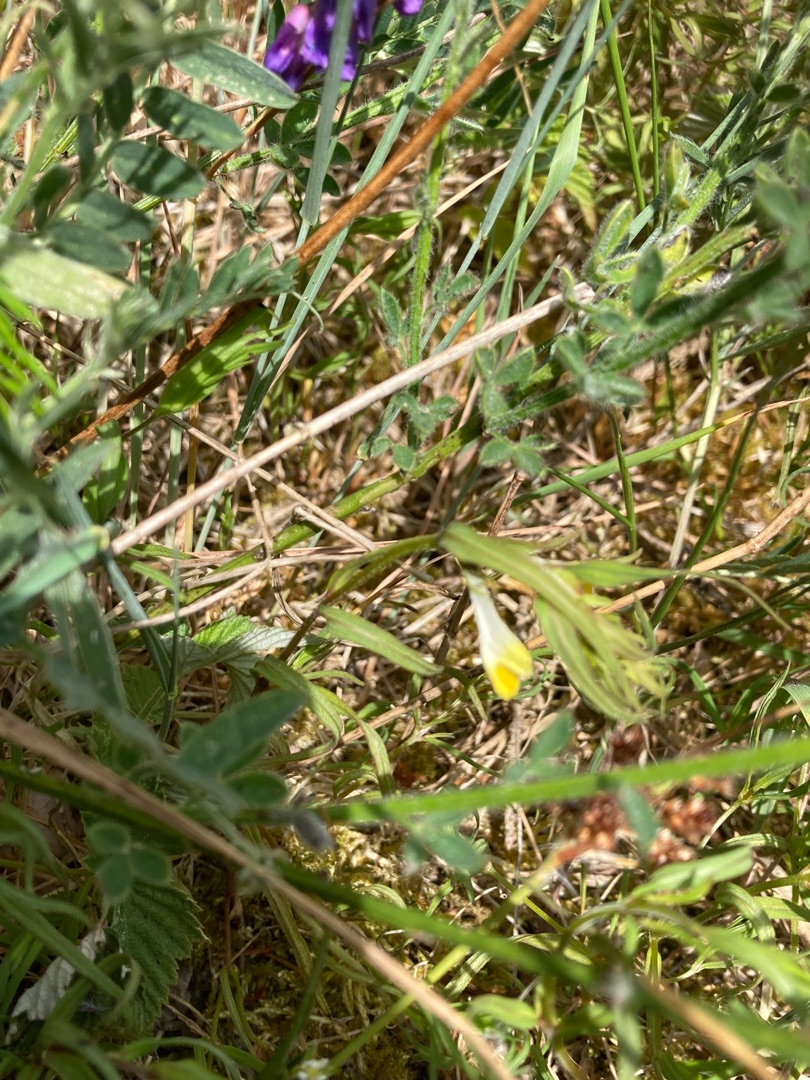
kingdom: Plantae
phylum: Tracheophyta
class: Magnoliopsida
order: Lamiales
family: Orobanchaceae
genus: Melampyrum
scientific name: Melampyrum pratense
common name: Almindelig kohvede
